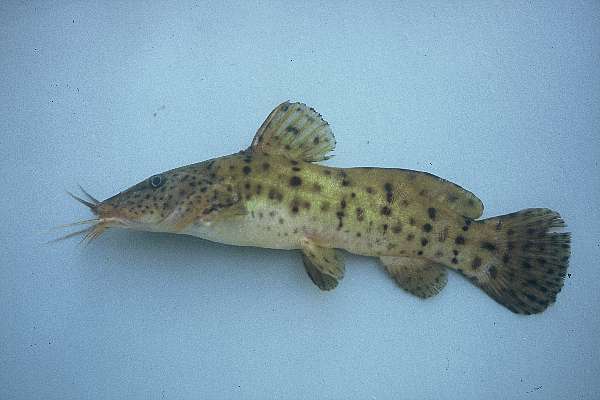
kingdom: Animalia
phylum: Chordata
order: Siluriformes
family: Claroteidae
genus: Parauchenoglanis
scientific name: Parauchenoglanis ngamensis
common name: Zambezi grunter
